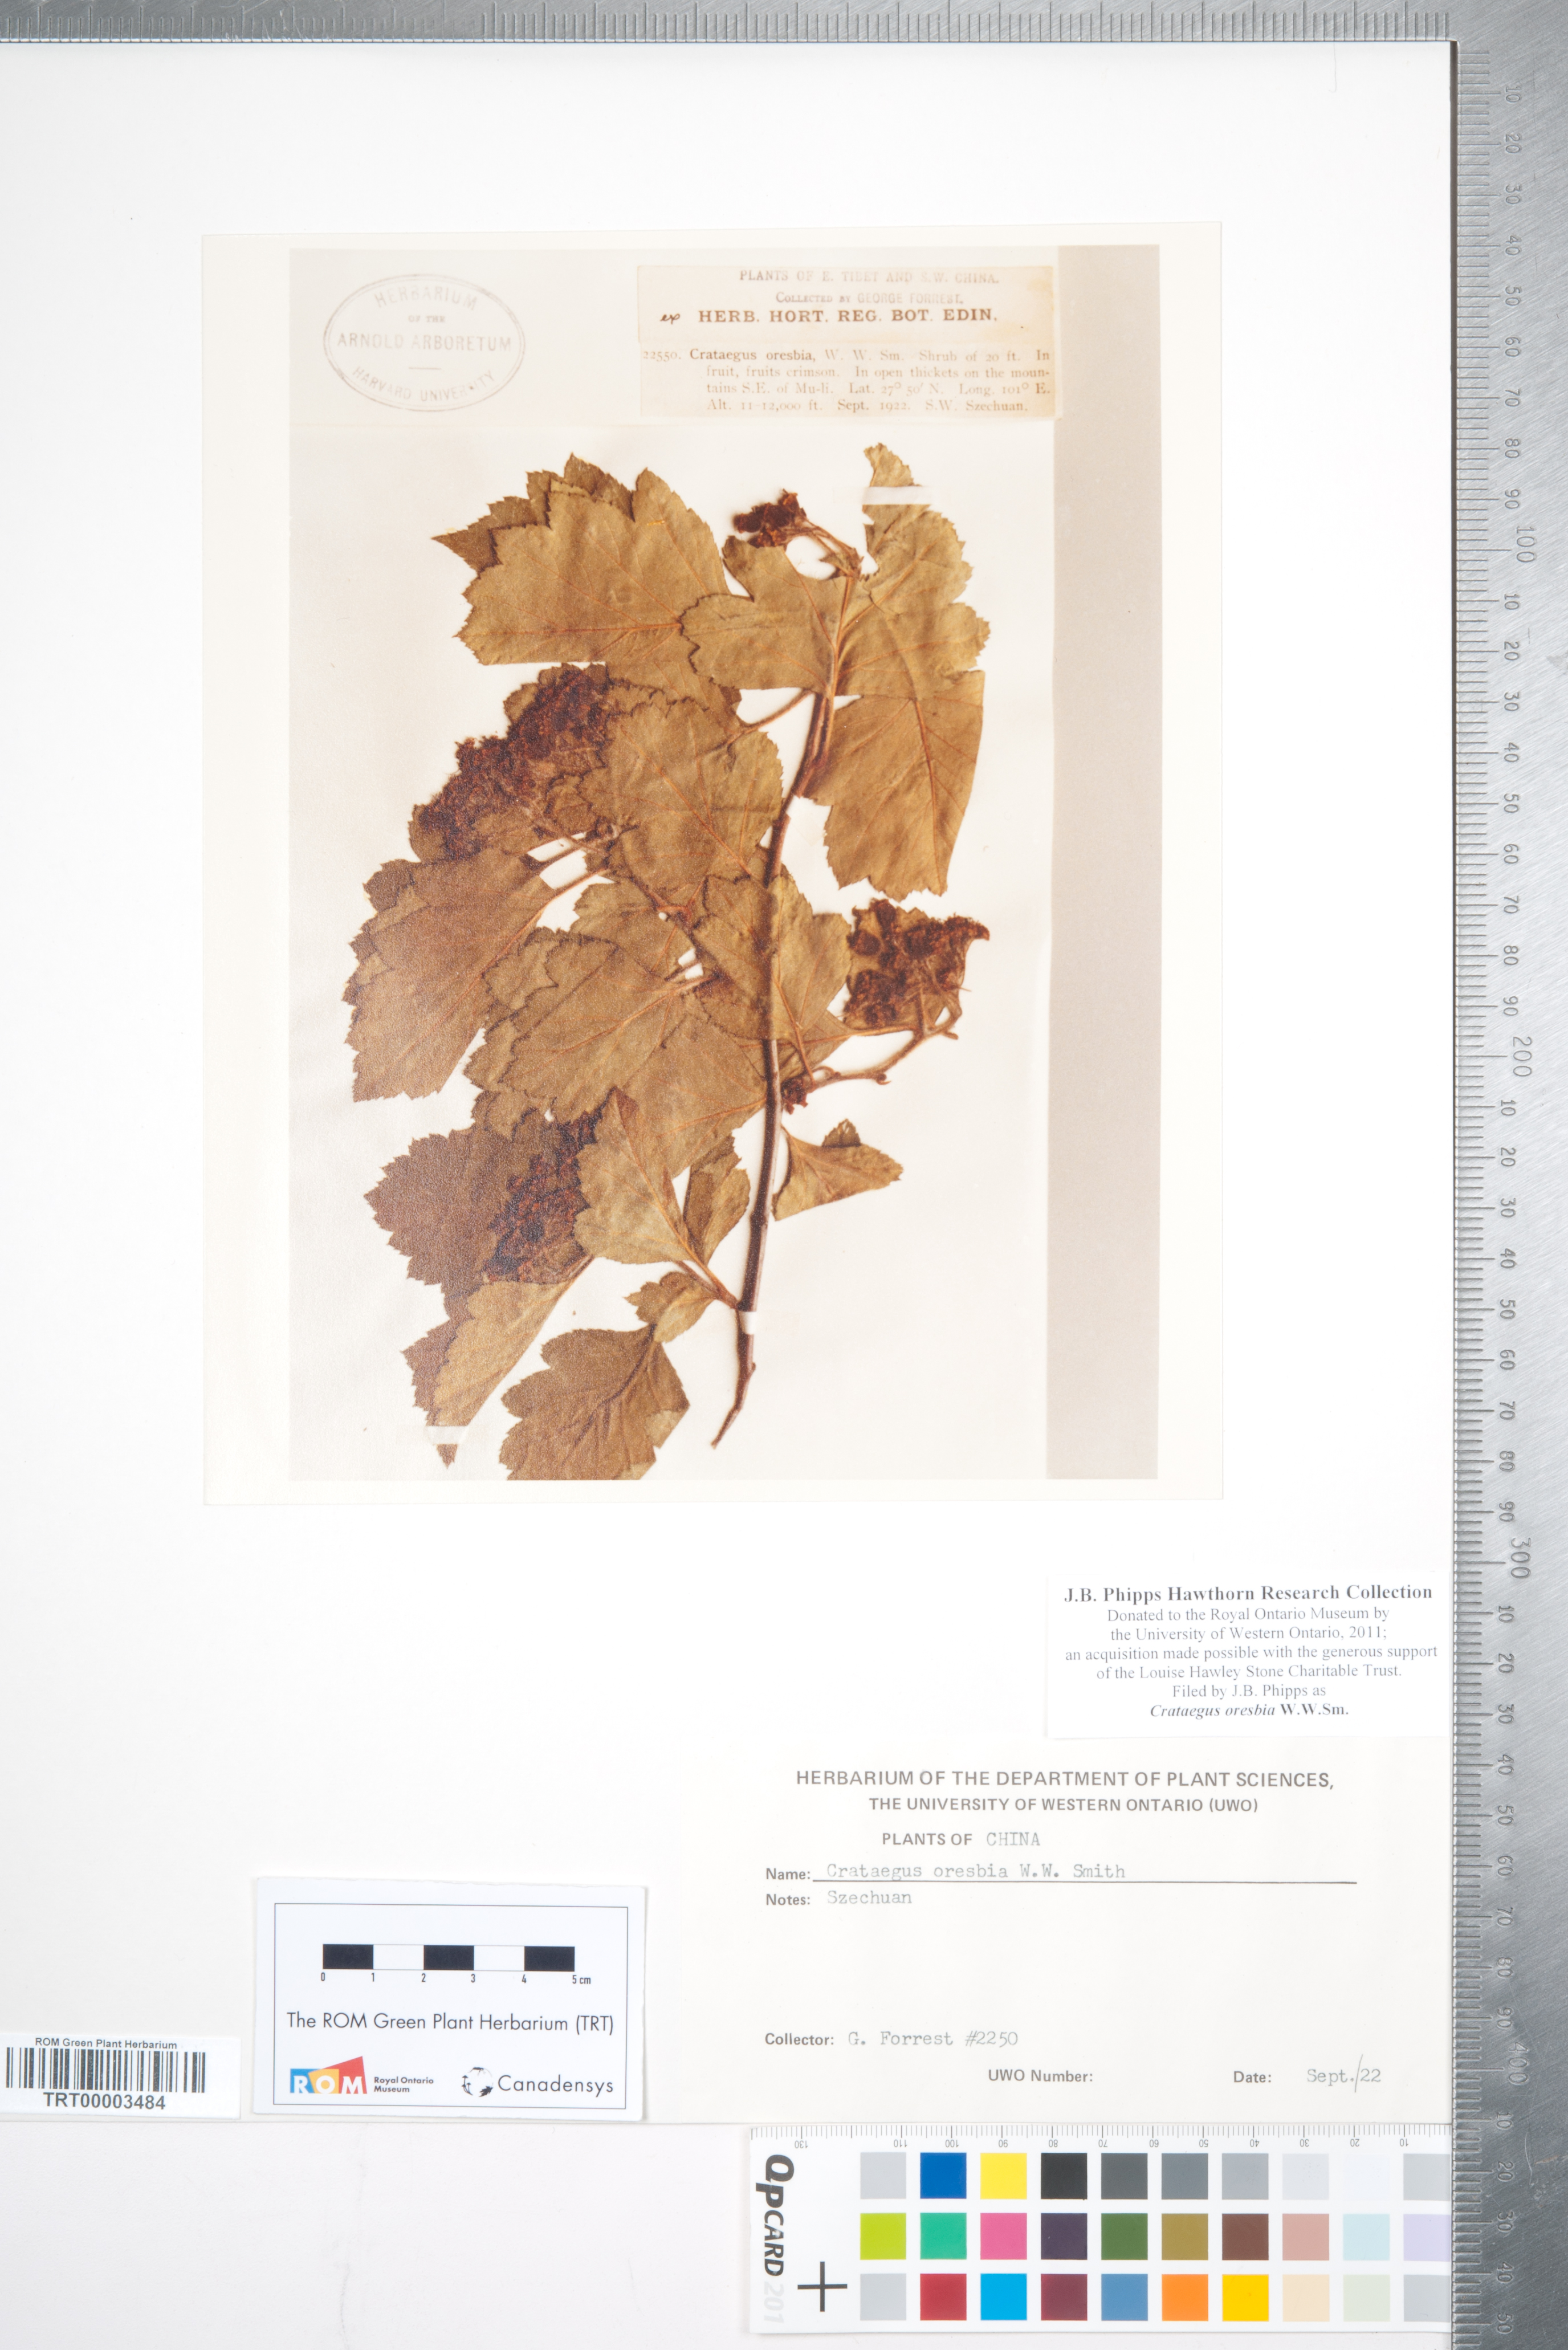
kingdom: Plantae
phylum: Tracheophyta
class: Magnoliopsida
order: Rosales
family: Rosaceae
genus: Crataegus
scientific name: Crataegus oresbia
